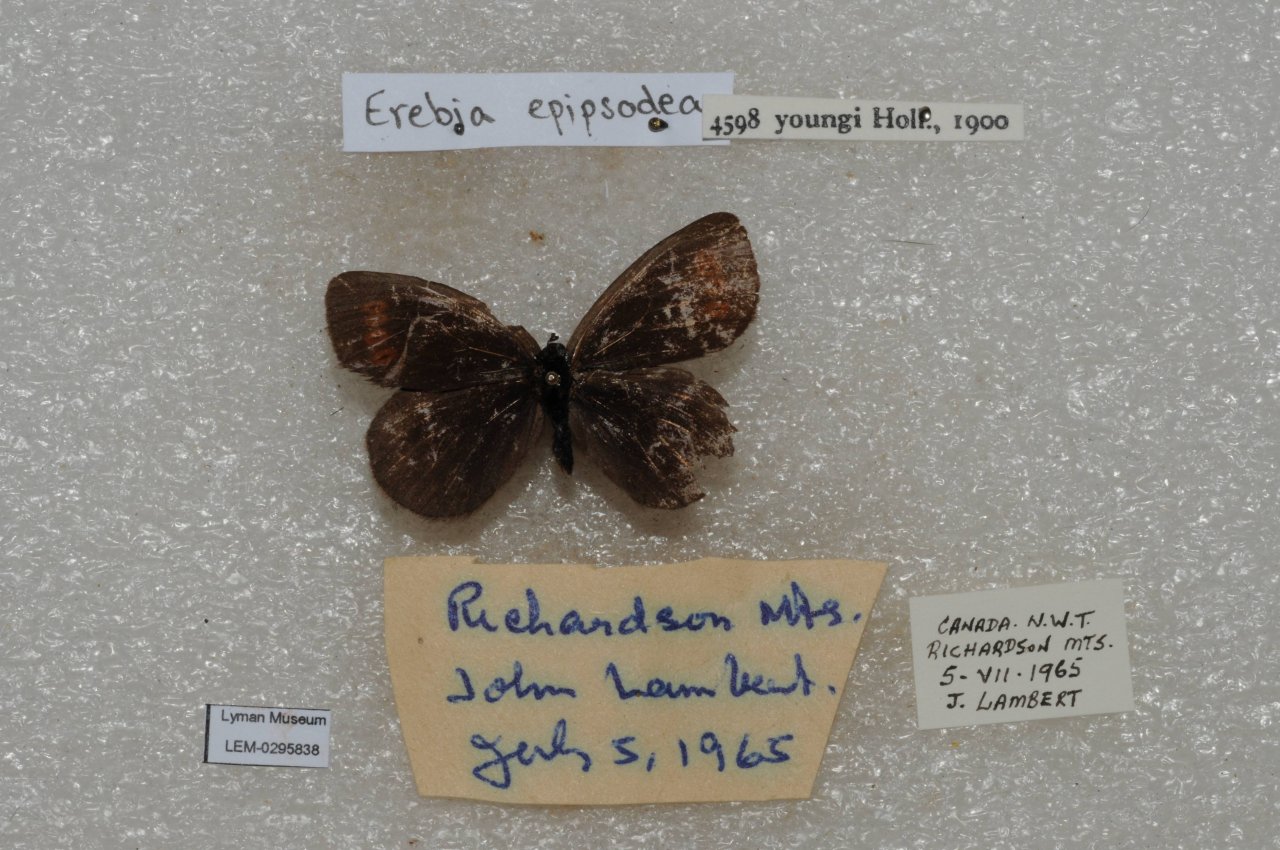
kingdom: Animalia
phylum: Arthropoda
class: Insecta
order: Lepidoptera
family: Nymphalidae
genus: Erebia
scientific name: Erebia youngi
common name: Four-dotted Alpine
